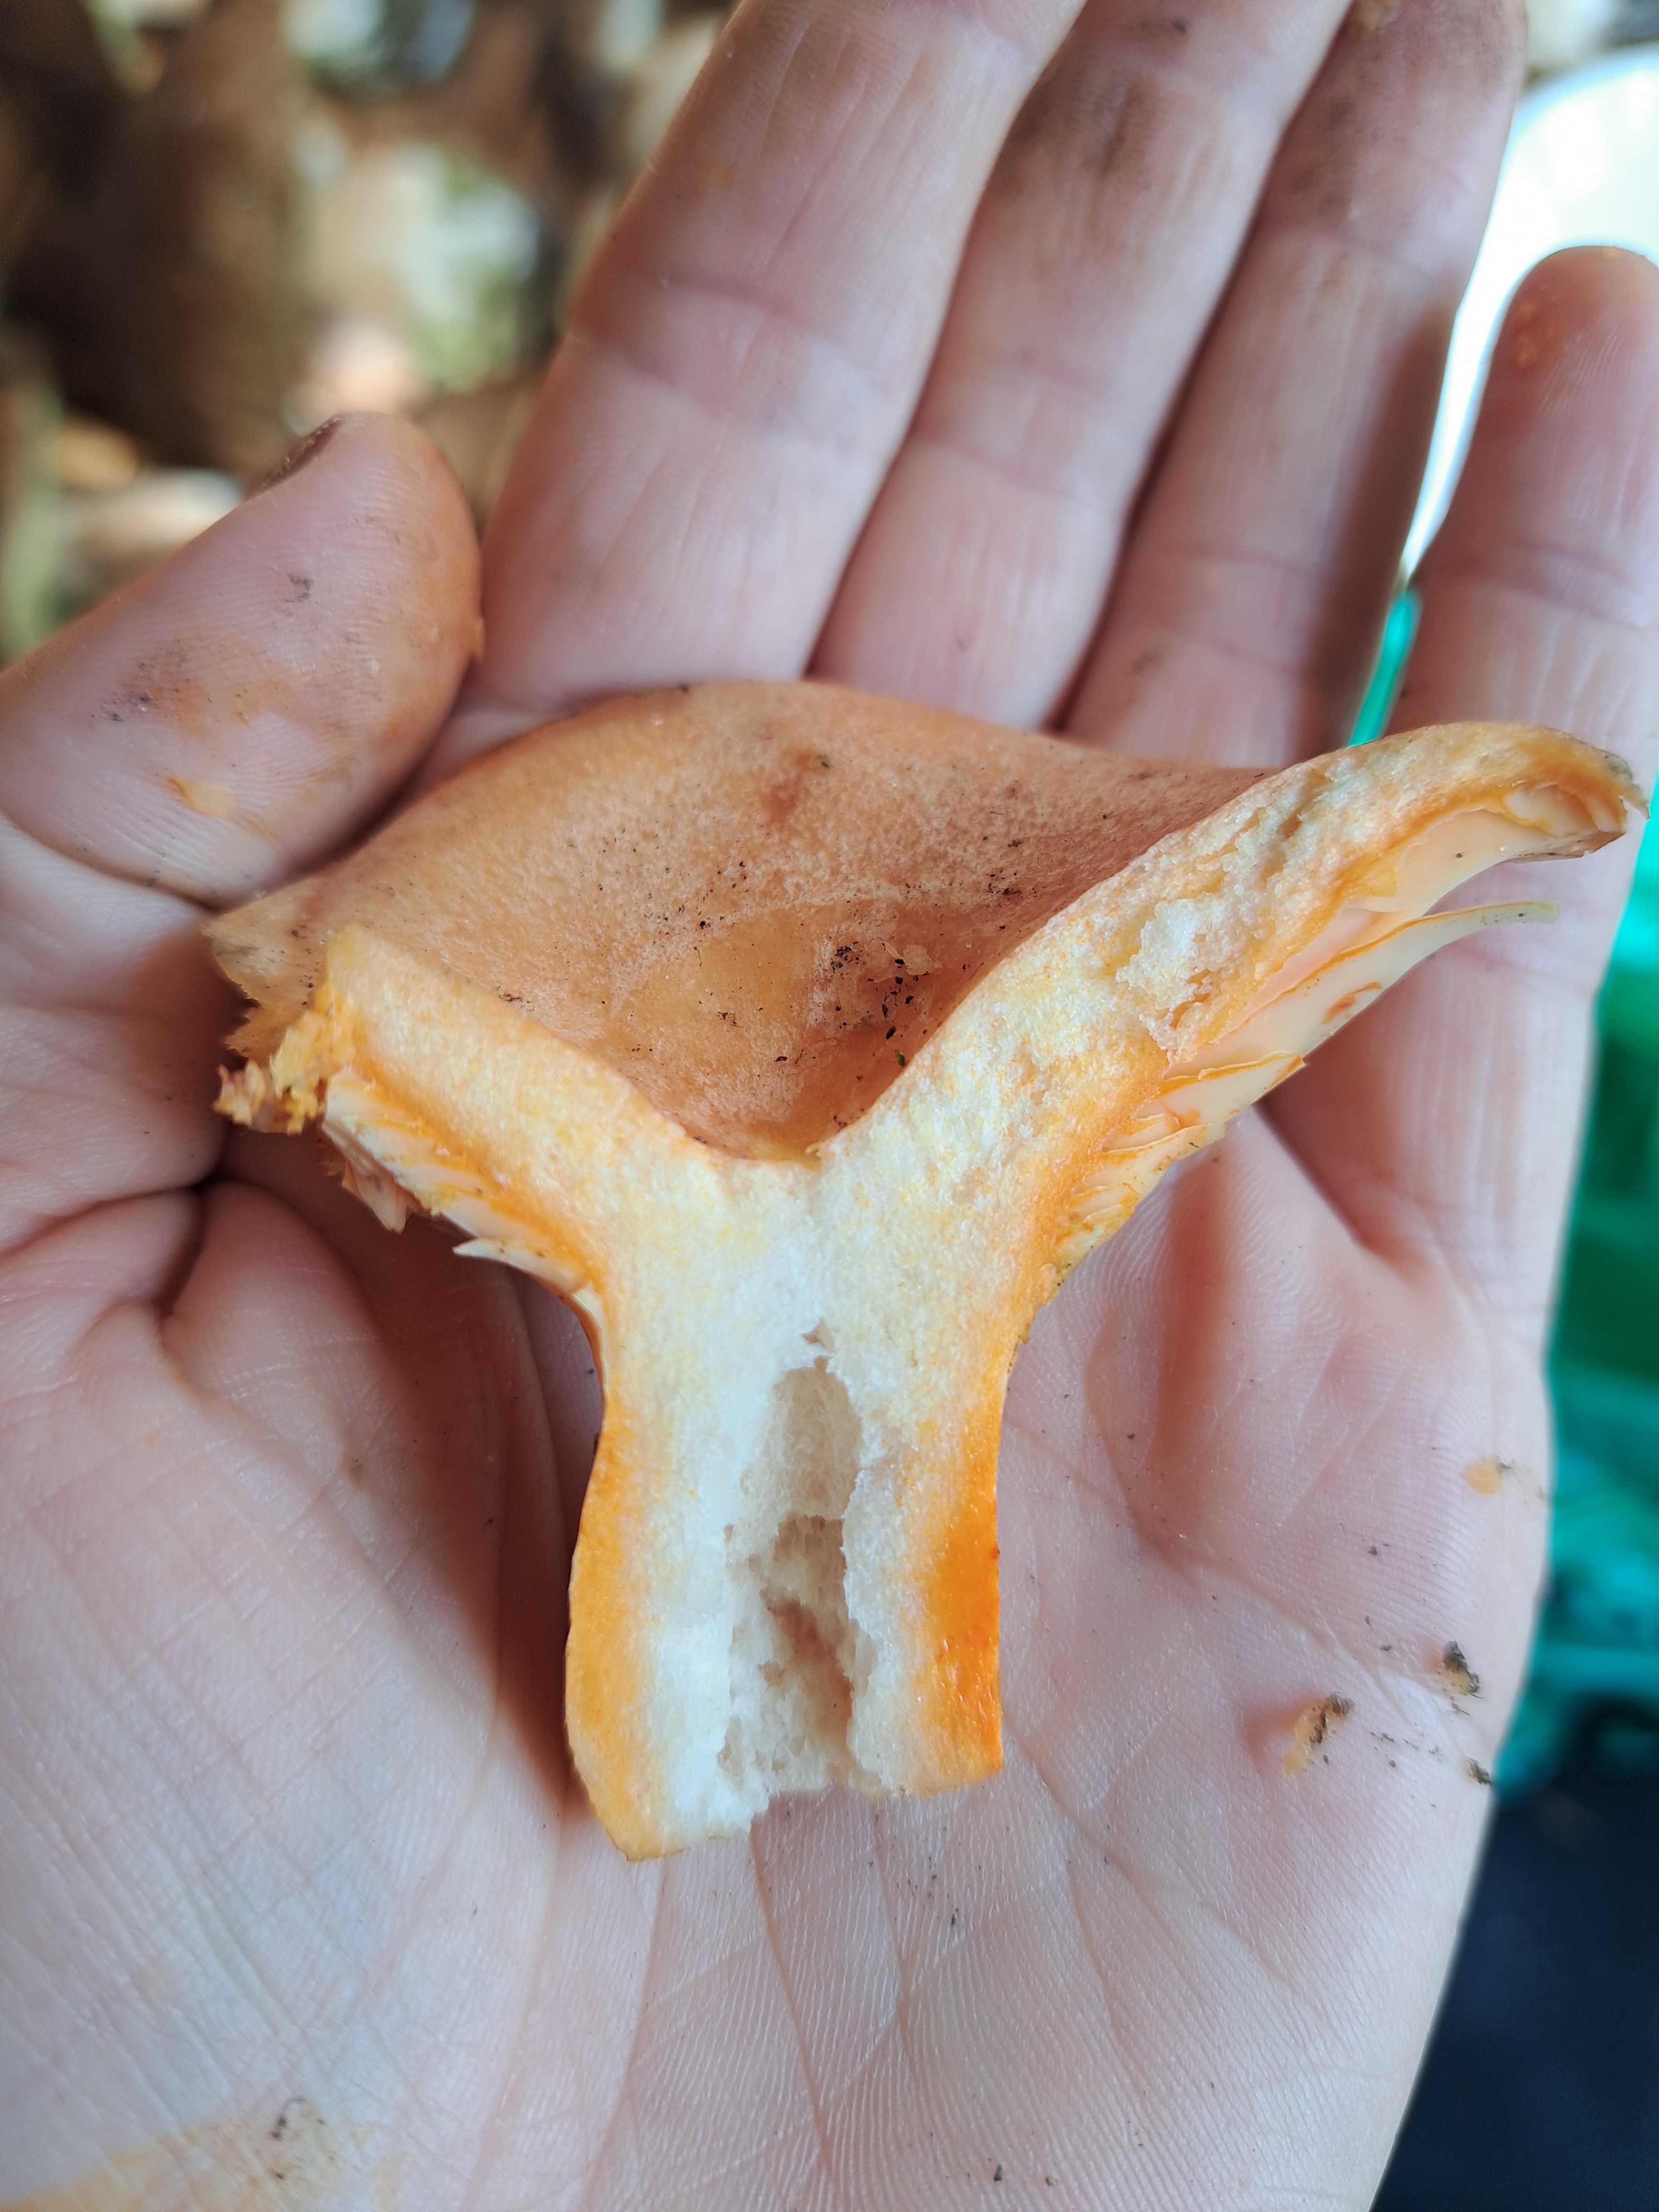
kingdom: Fungi
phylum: Basidiomycota
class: Agaricomycetes
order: Russulales
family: Russulaceae
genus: Lactarius
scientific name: Lactarius deliciosus
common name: velsmagende mælkehat
